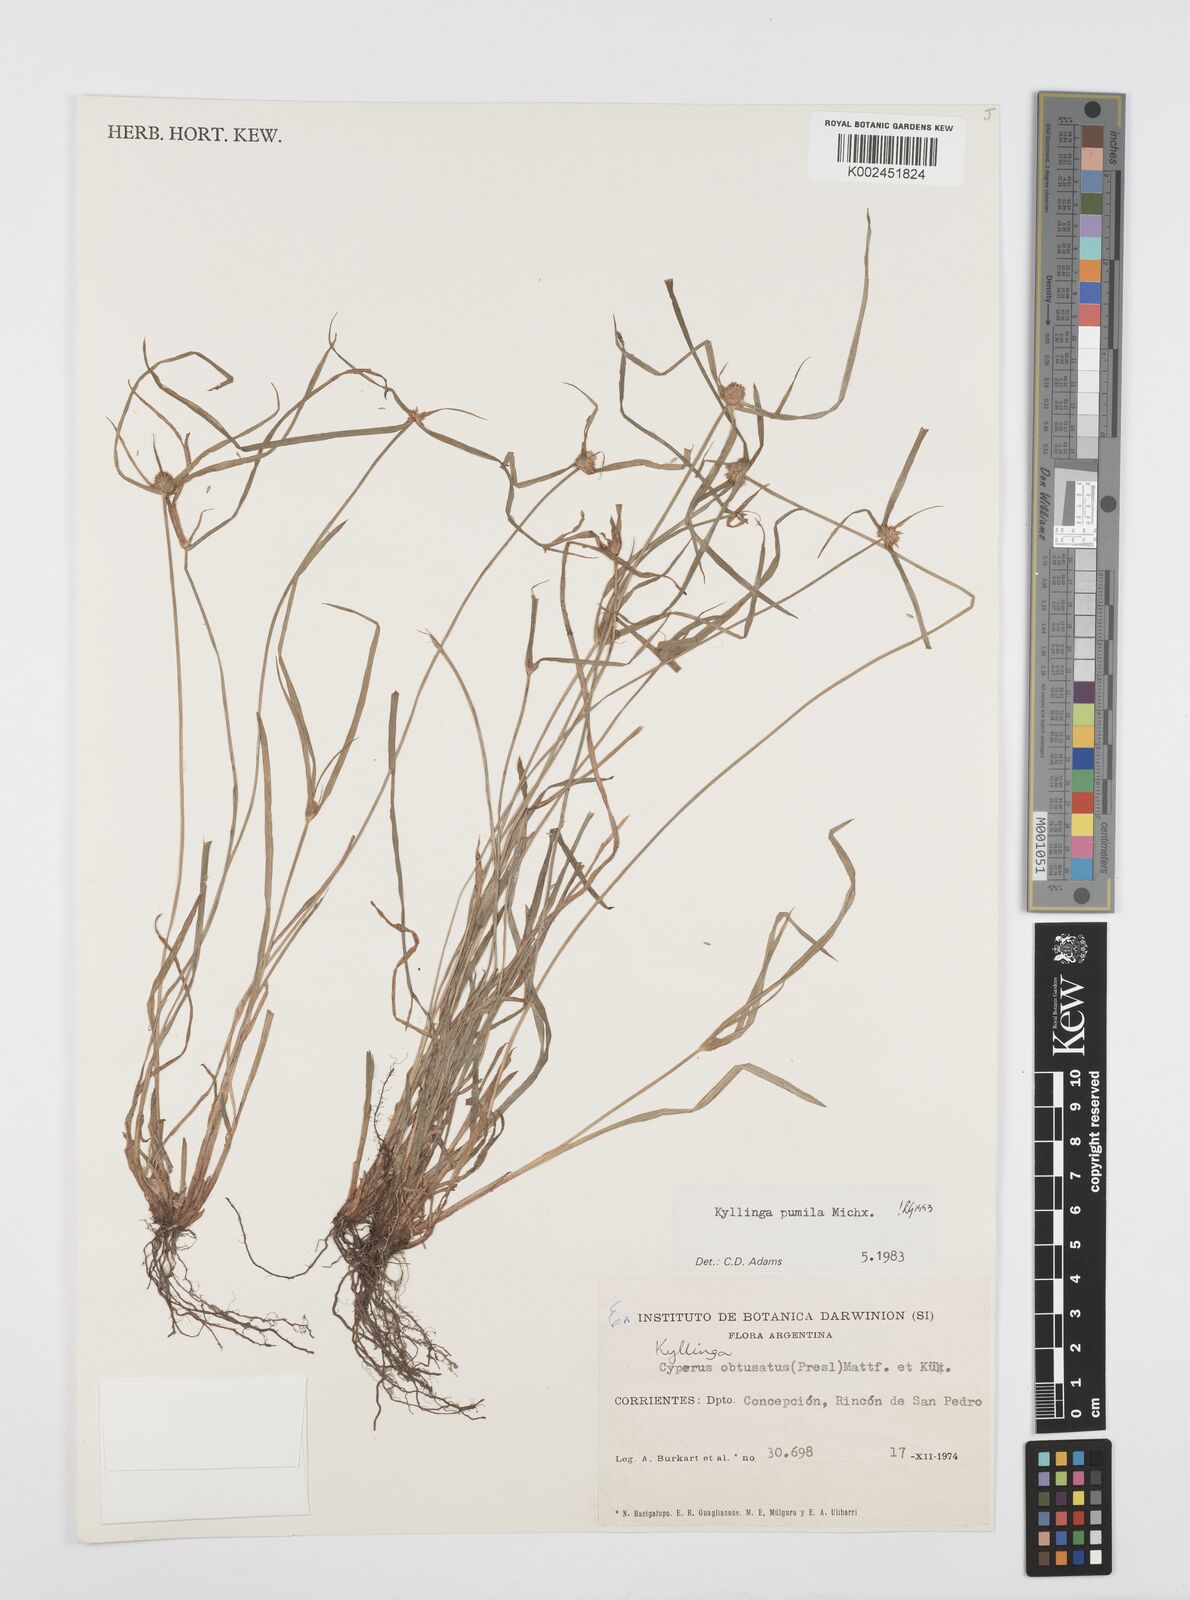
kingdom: Plantae
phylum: Tracheophyta
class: Liliopsida
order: Poales
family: Cyperaceae
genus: Cyperus
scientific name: Cyperus pumilus
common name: Low flatsedge
